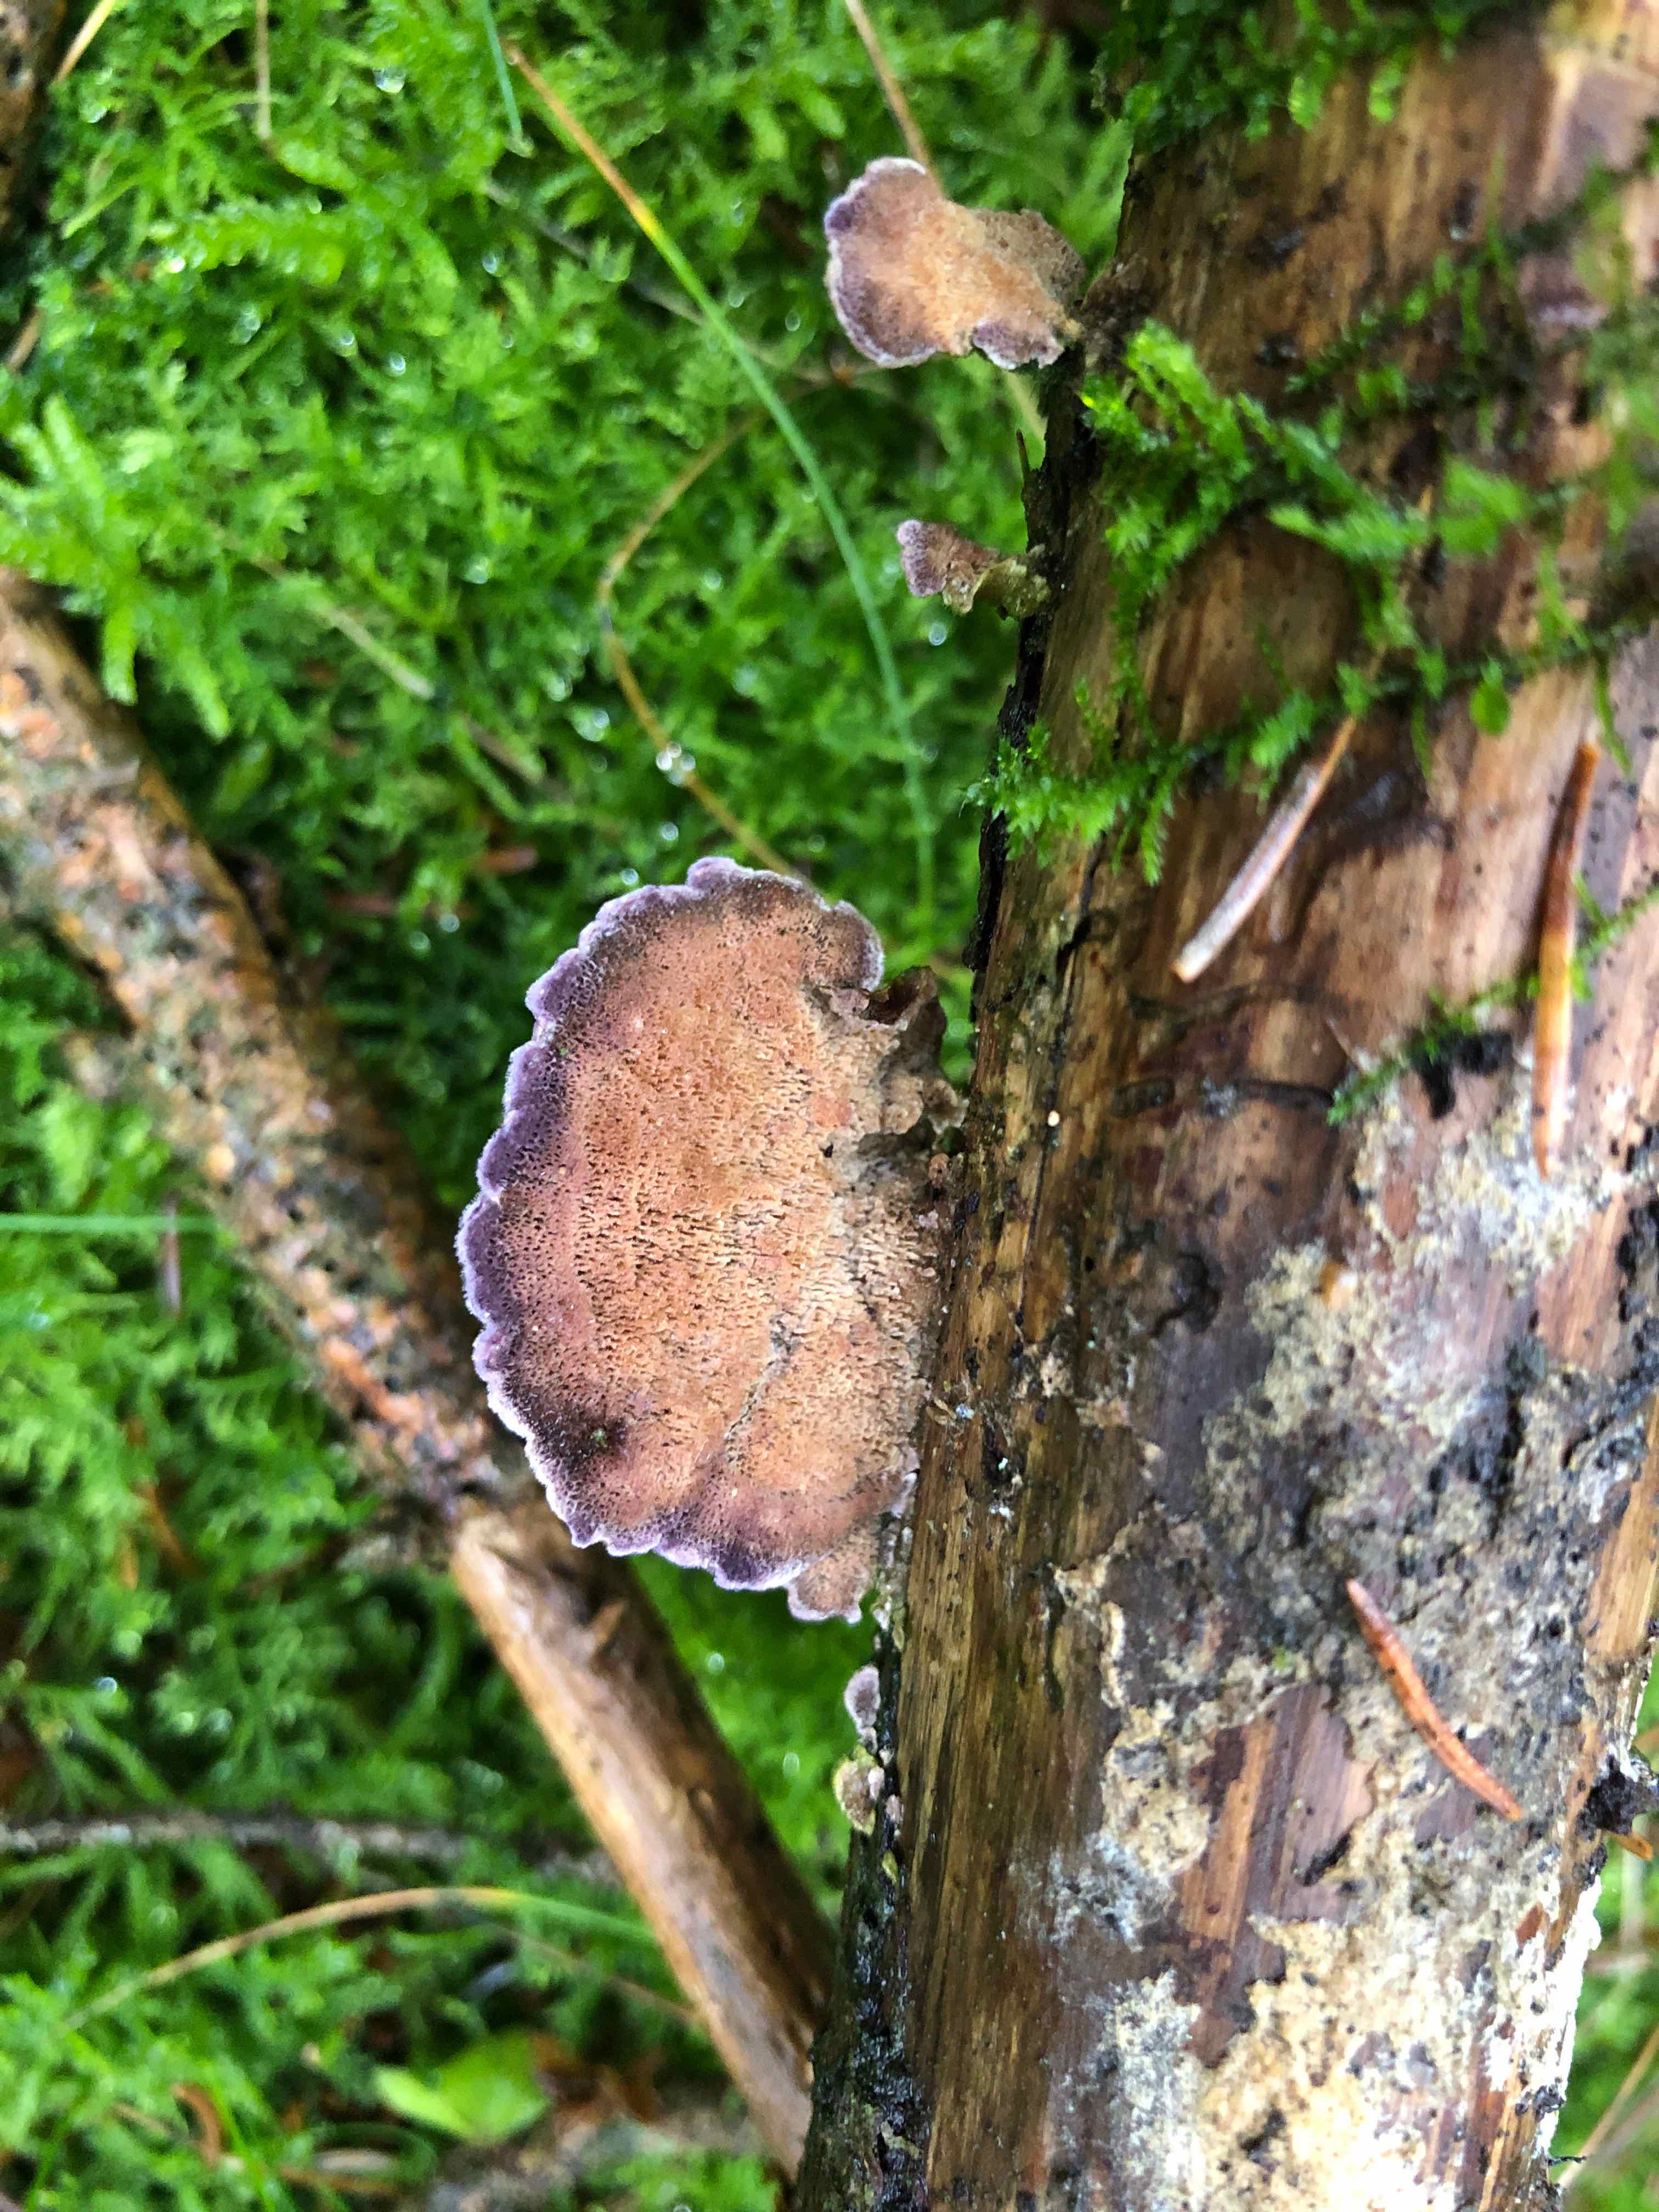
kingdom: Fungi
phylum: Basidiomycota
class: Agaricomycetes
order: Hymenochaetales
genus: Trichaptum
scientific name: Trichaptum abietinum
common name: almindelig violporesvamp
